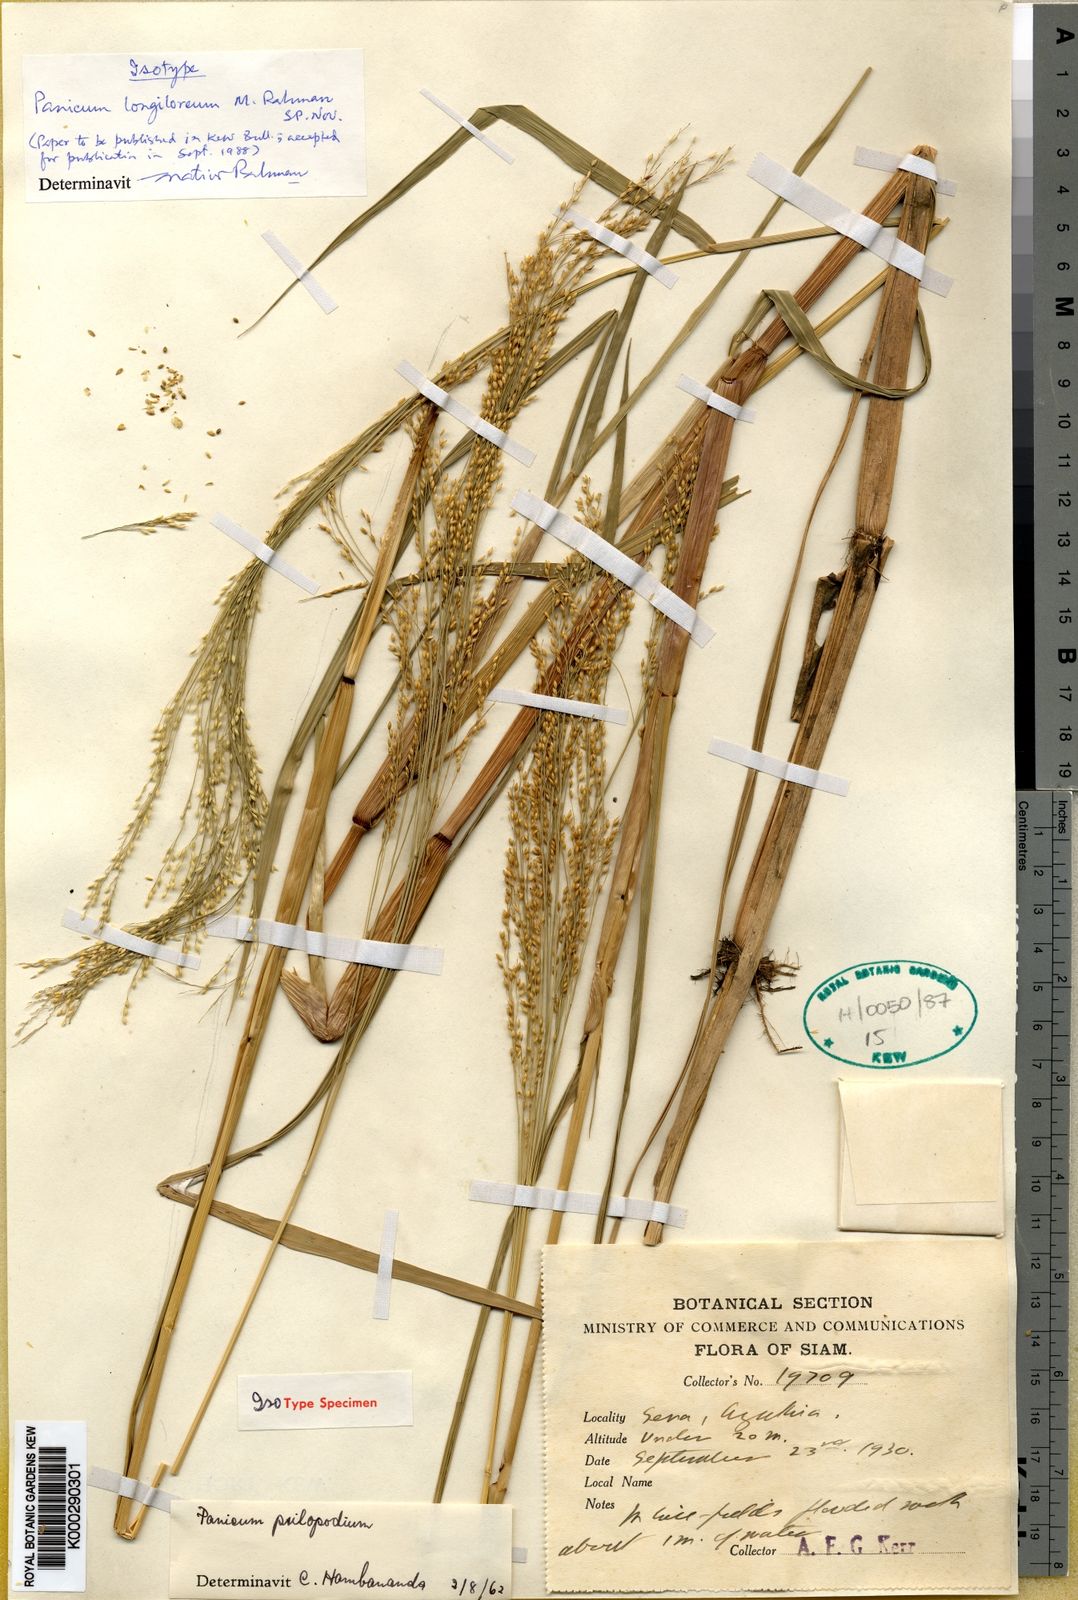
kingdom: Plantae
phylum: Tracheophyta
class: Liliopsida
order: Poales
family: Poaceae
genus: Panicum
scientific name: Panicum longiloreum
